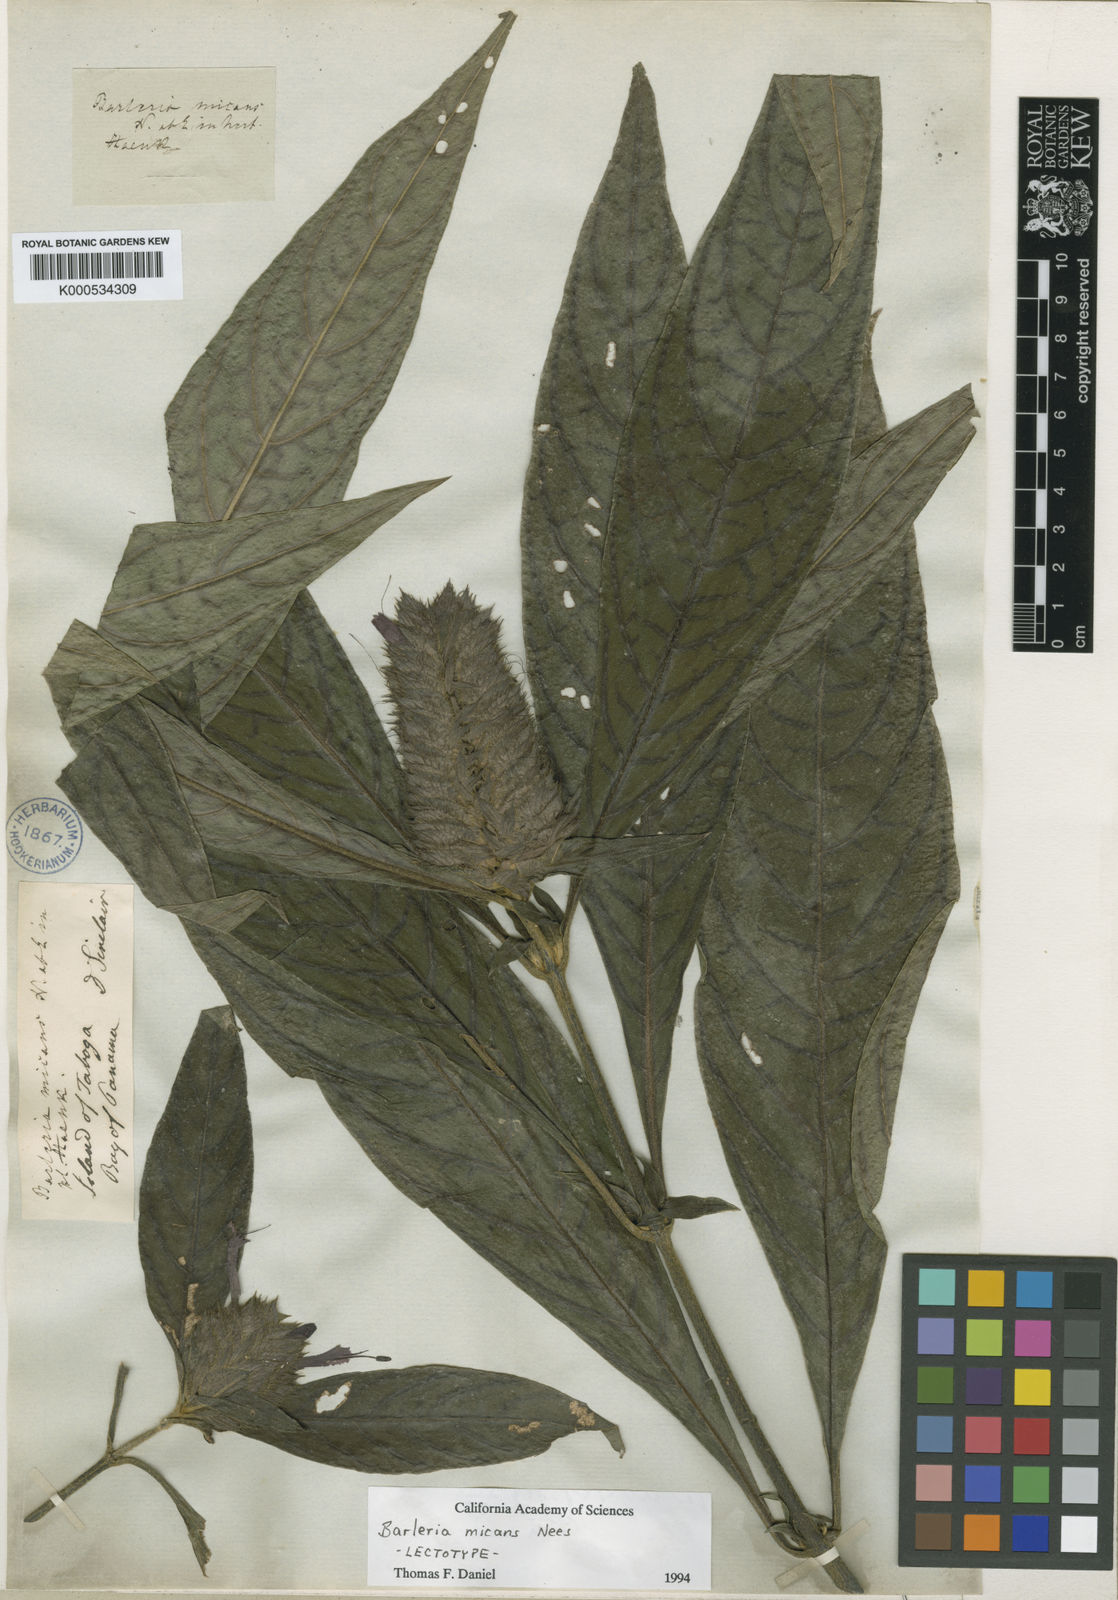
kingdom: Plantae
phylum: Tracheophyta
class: Magnoliopsida
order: Lamiales
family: Acanthaceae
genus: Barleria
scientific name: Barleria oenotheroides
